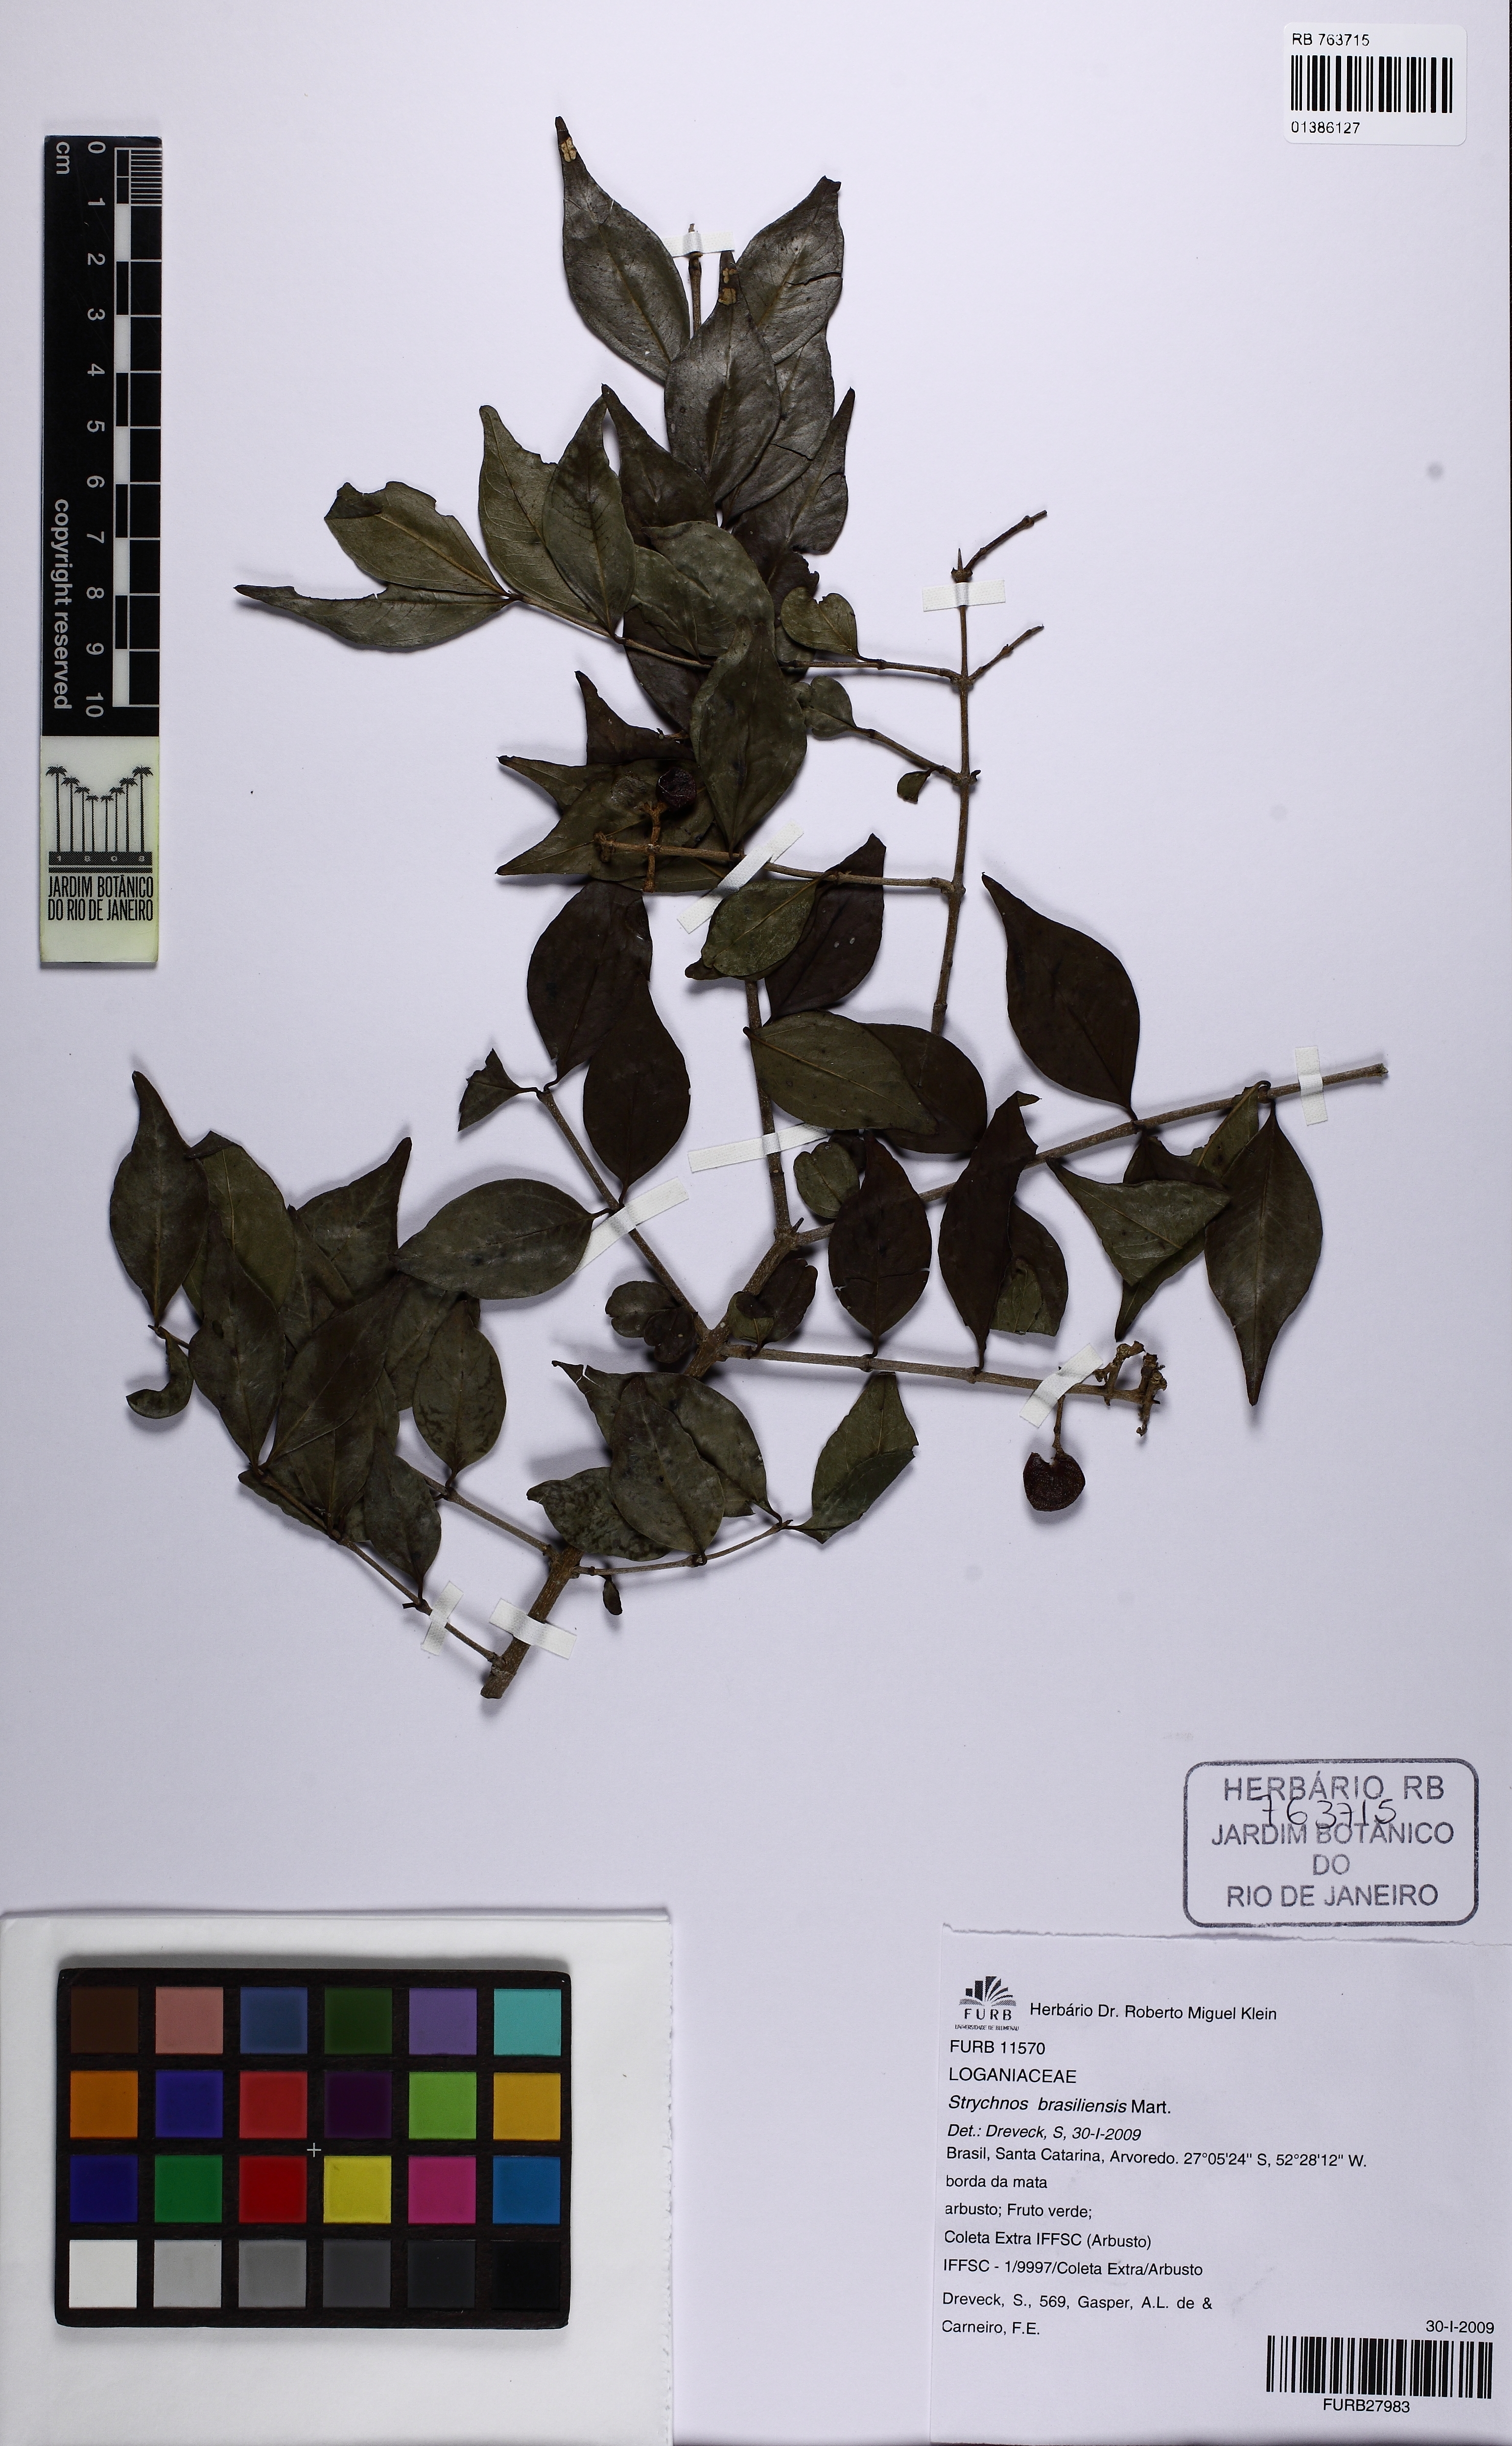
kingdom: Plantae
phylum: Tracheophyta
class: Magnoliopsida
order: Gentianales
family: Loganiaceae
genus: Strychnos
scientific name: Strychnos brasiliensis
